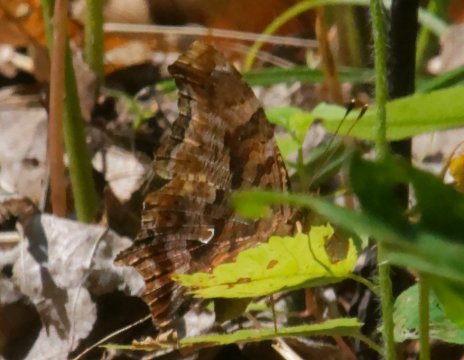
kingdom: Animalia
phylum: Arthropoda
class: Insecta
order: Lepidoptera
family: Nymphalidae
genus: Polygonia
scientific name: Polygonia comma
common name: Eastern Comma
